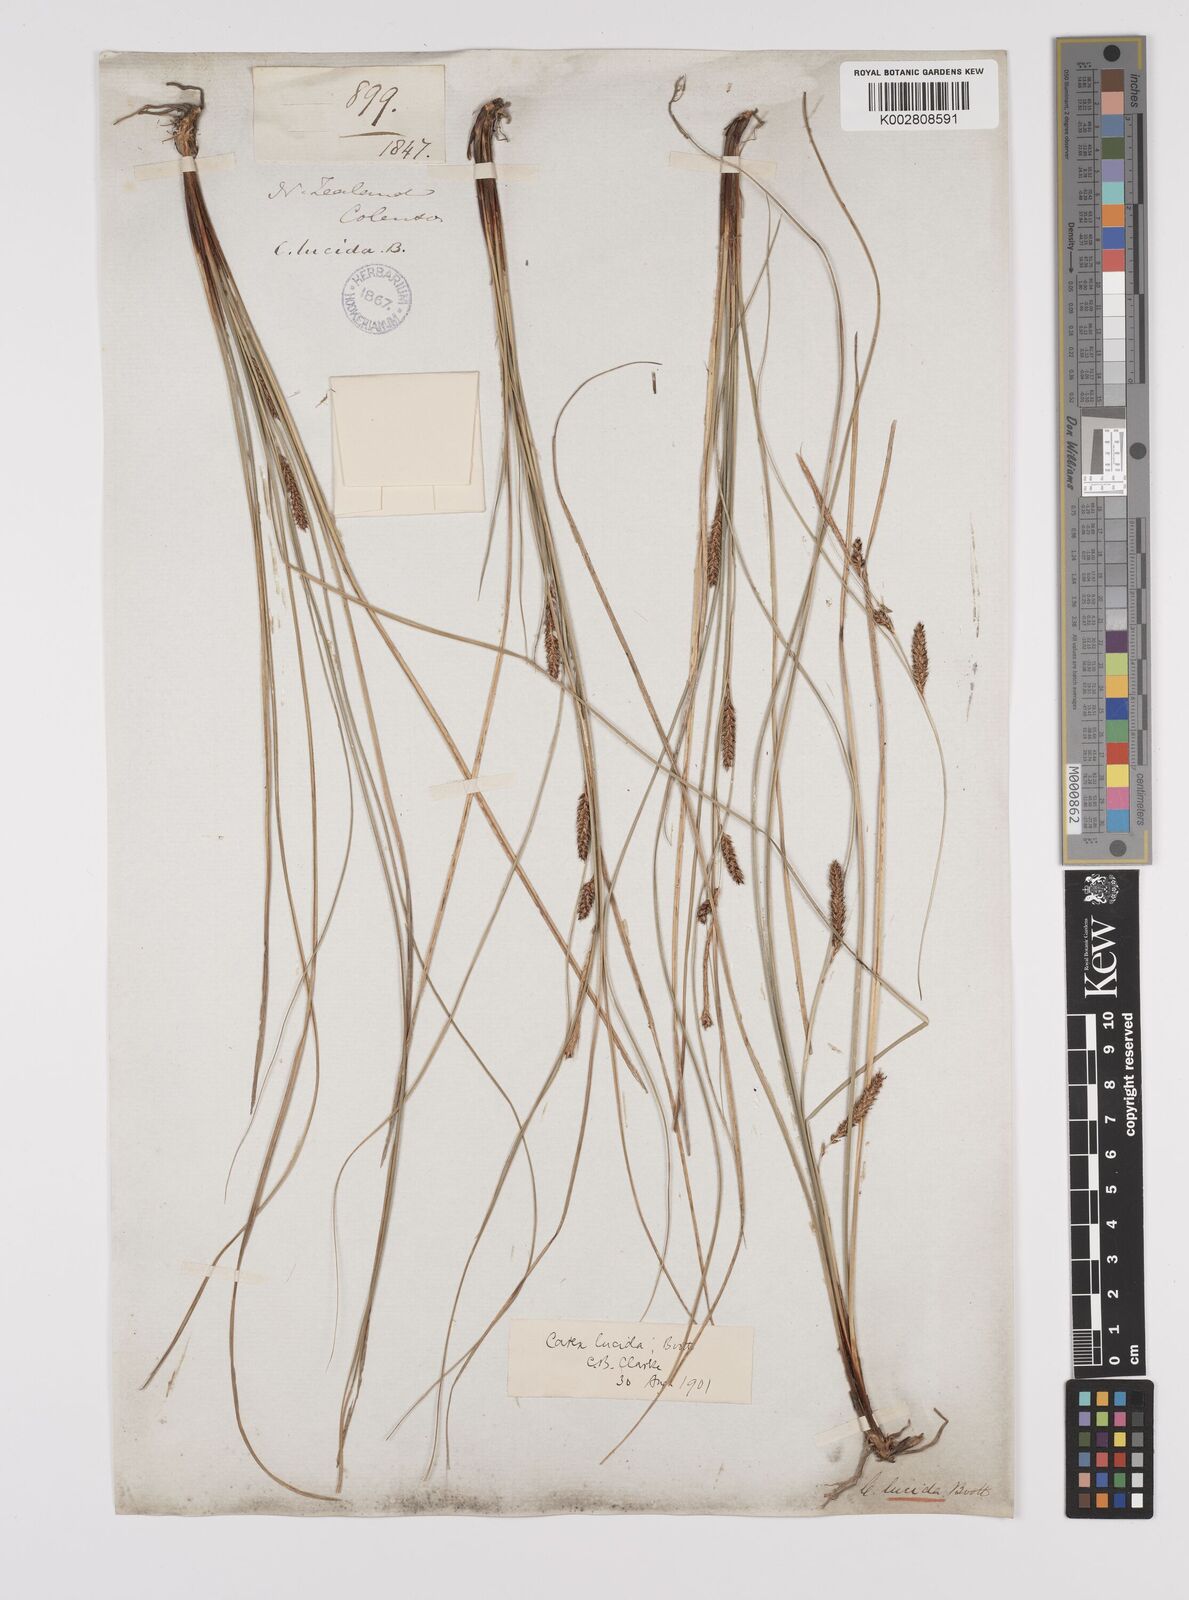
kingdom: Plantae
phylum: Tracheophyta
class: Liliopsida
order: Poales
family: Cyperaceae
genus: Carex
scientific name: Carex flagellifera
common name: Glen murray tussock
